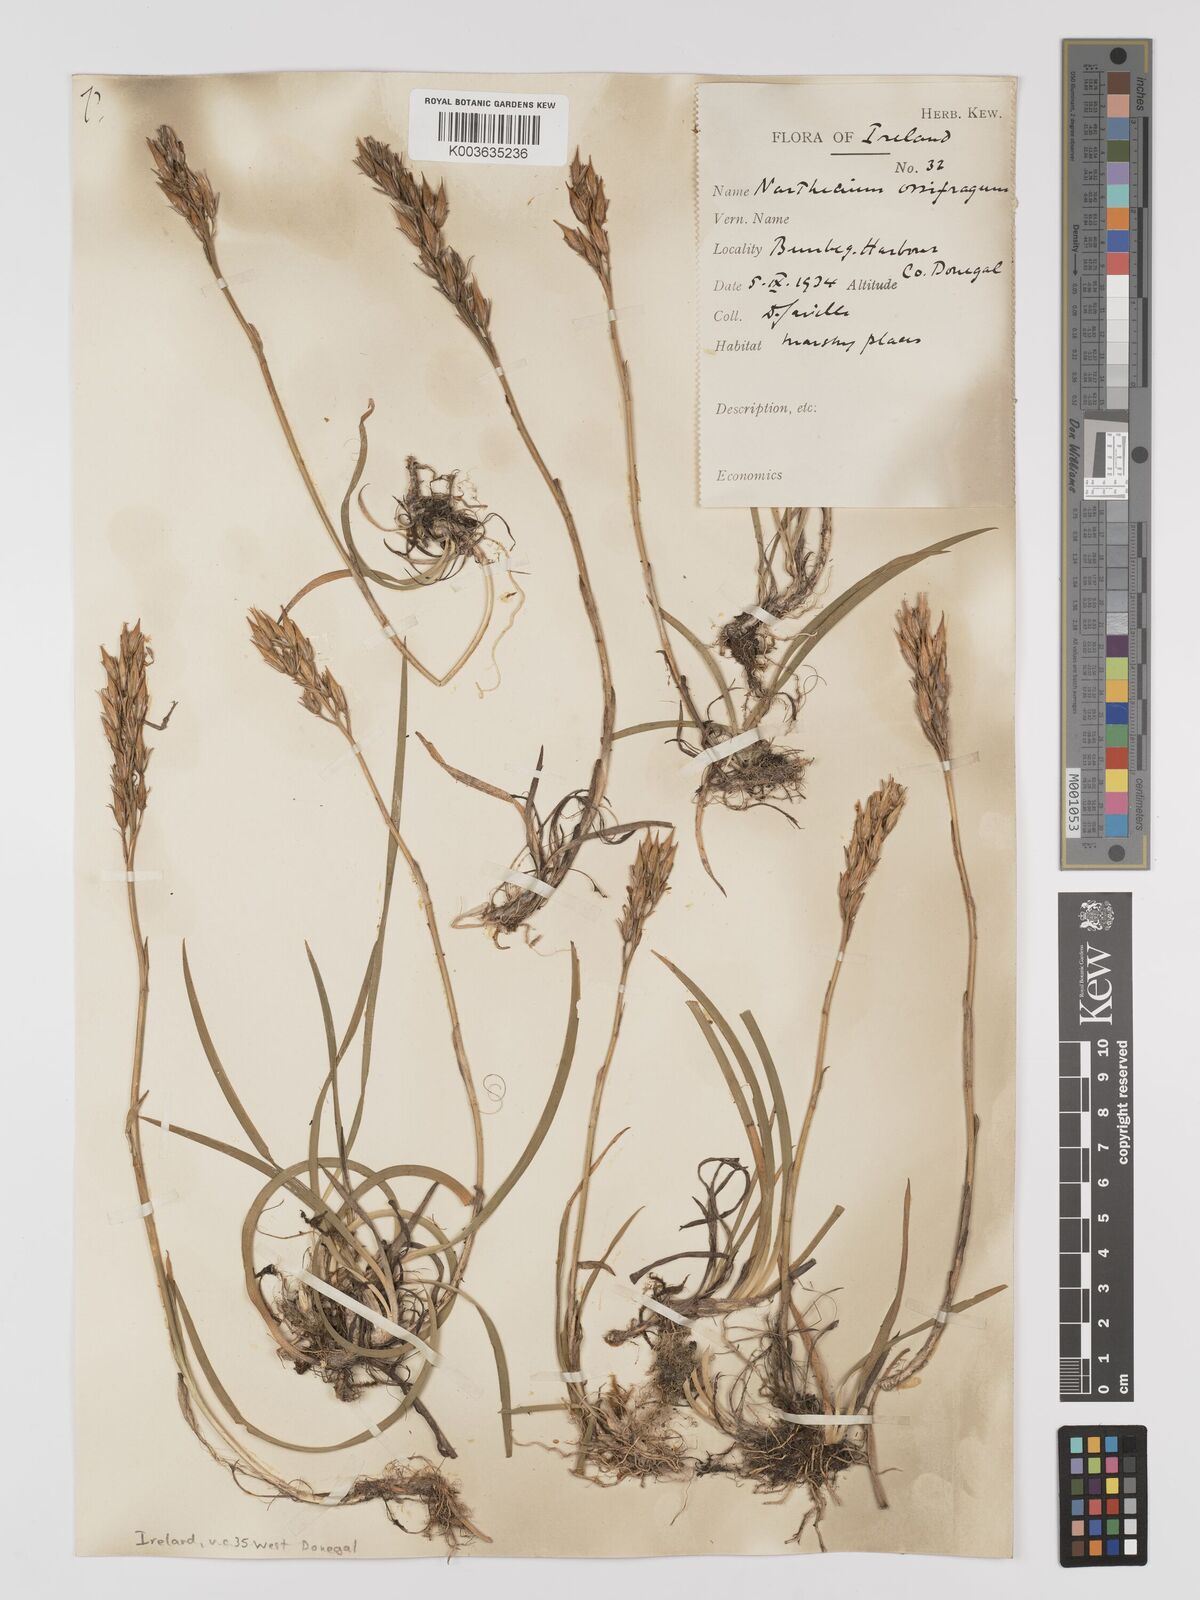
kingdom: Plantae
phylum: Tracheophyta
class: Liliopsida
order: Dioscoreales
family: Nartheciaceae
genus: Narthecium
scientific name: Narthecium ossifragum
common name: Bog asphodel
